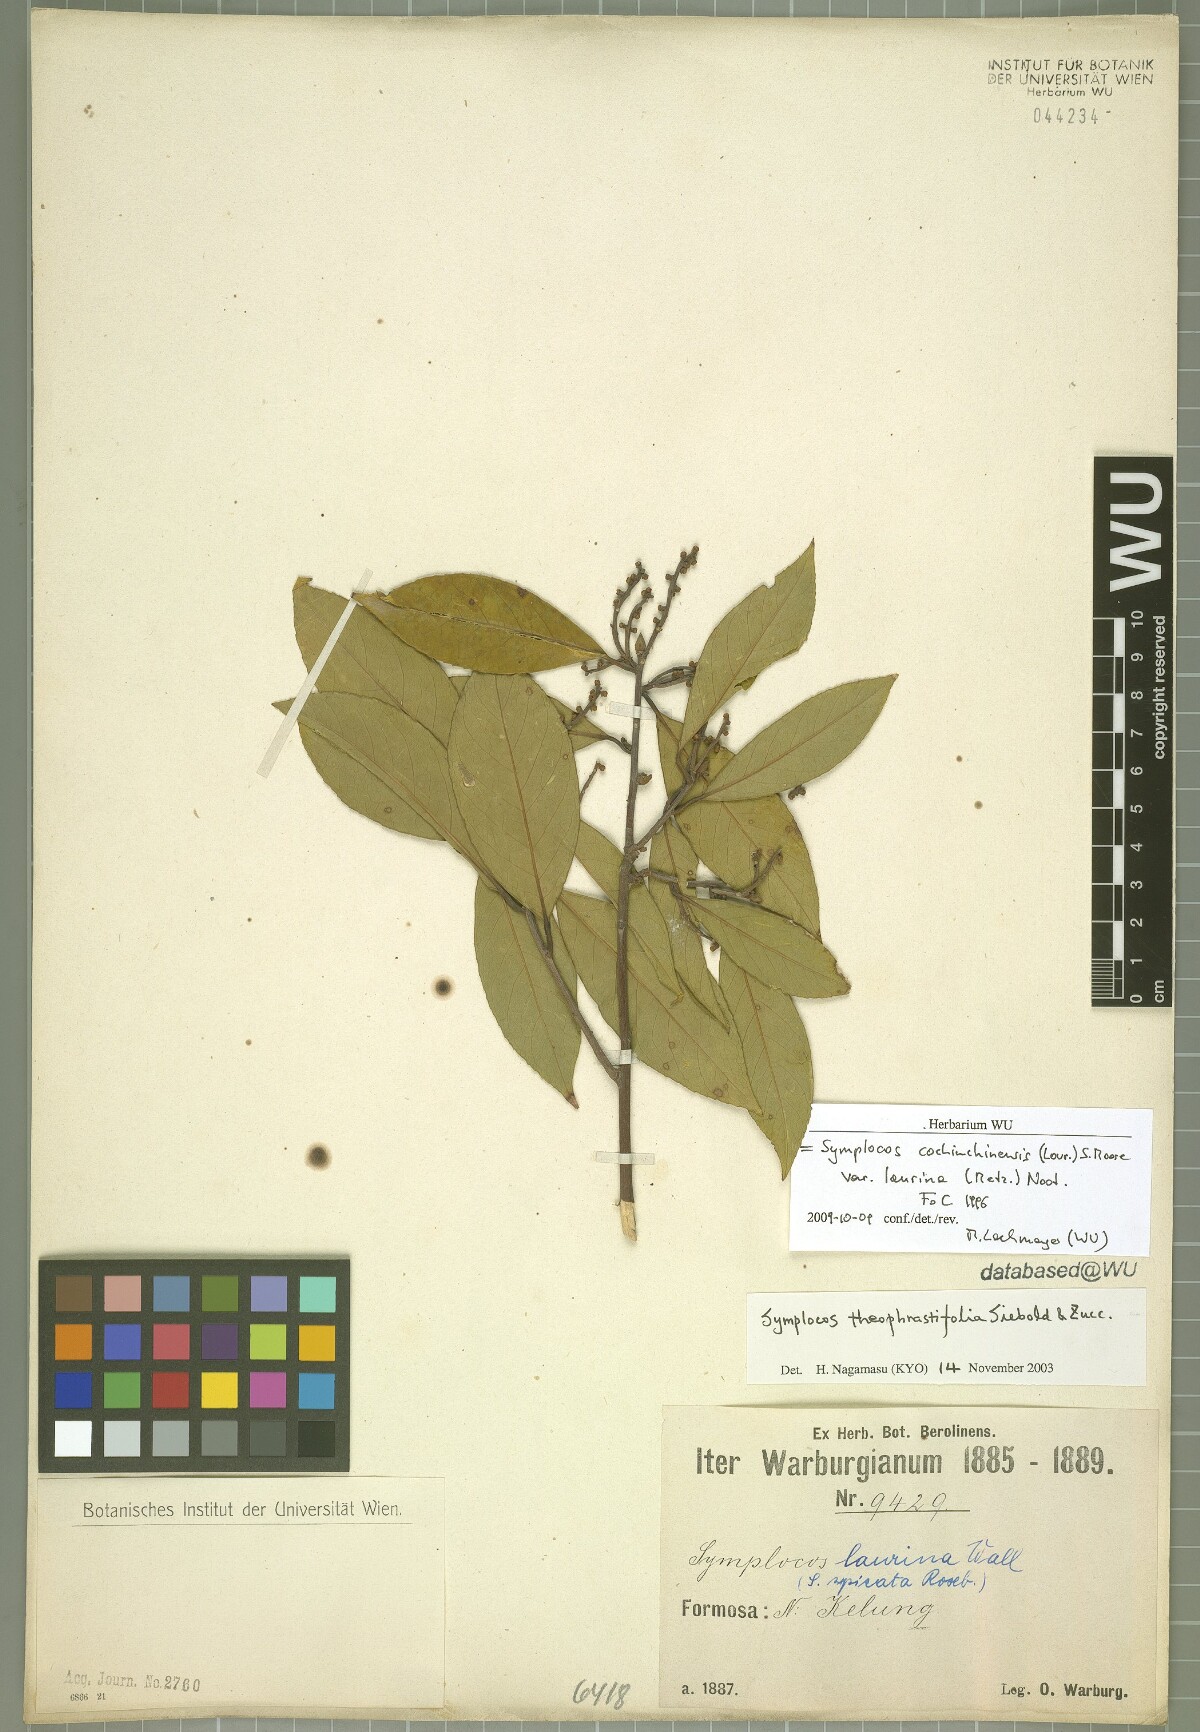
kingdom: Plantae
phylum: Tracheophyta
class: Magnoliopsida
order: Ericales
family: Symplocaceae
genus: Symplocos
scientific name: Symplocos acuminata
